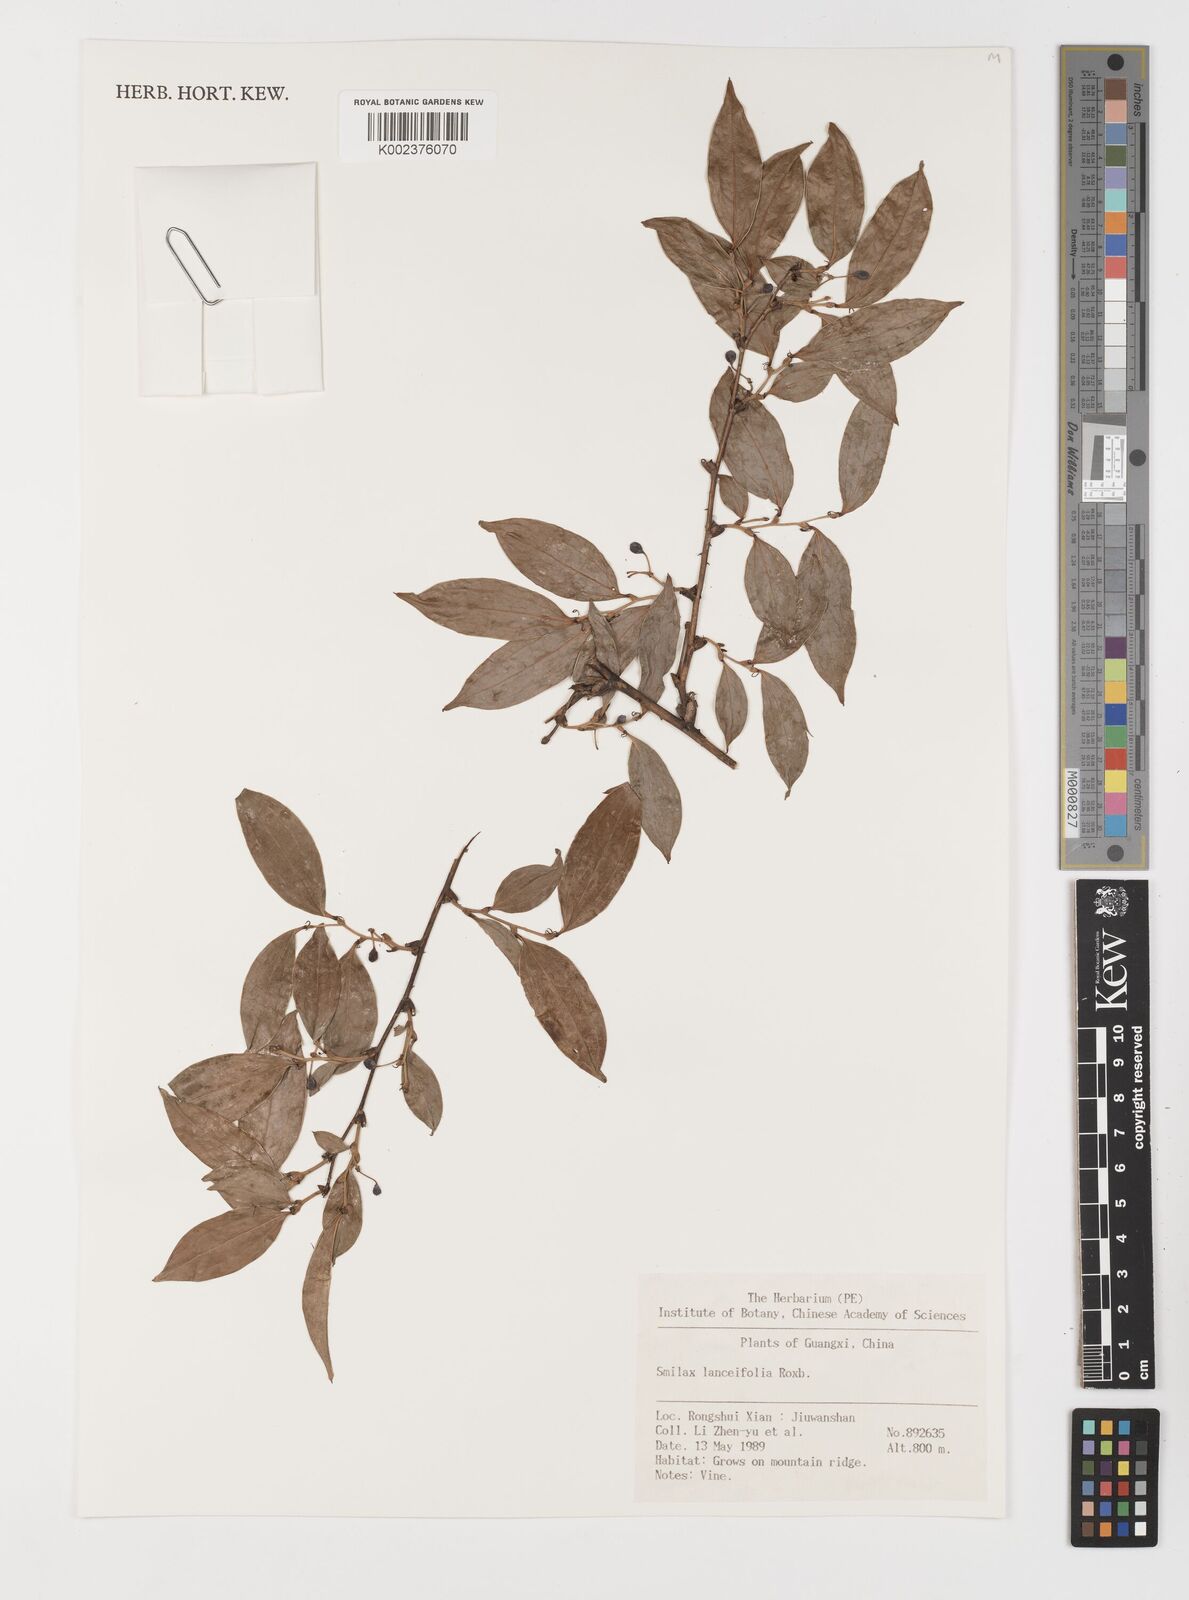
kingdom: Plantae
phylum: Tracheophyta
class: Liliopsida
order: Liliales
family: Smilacaceae
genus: Smilax
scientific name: Smilax lanceifolia
